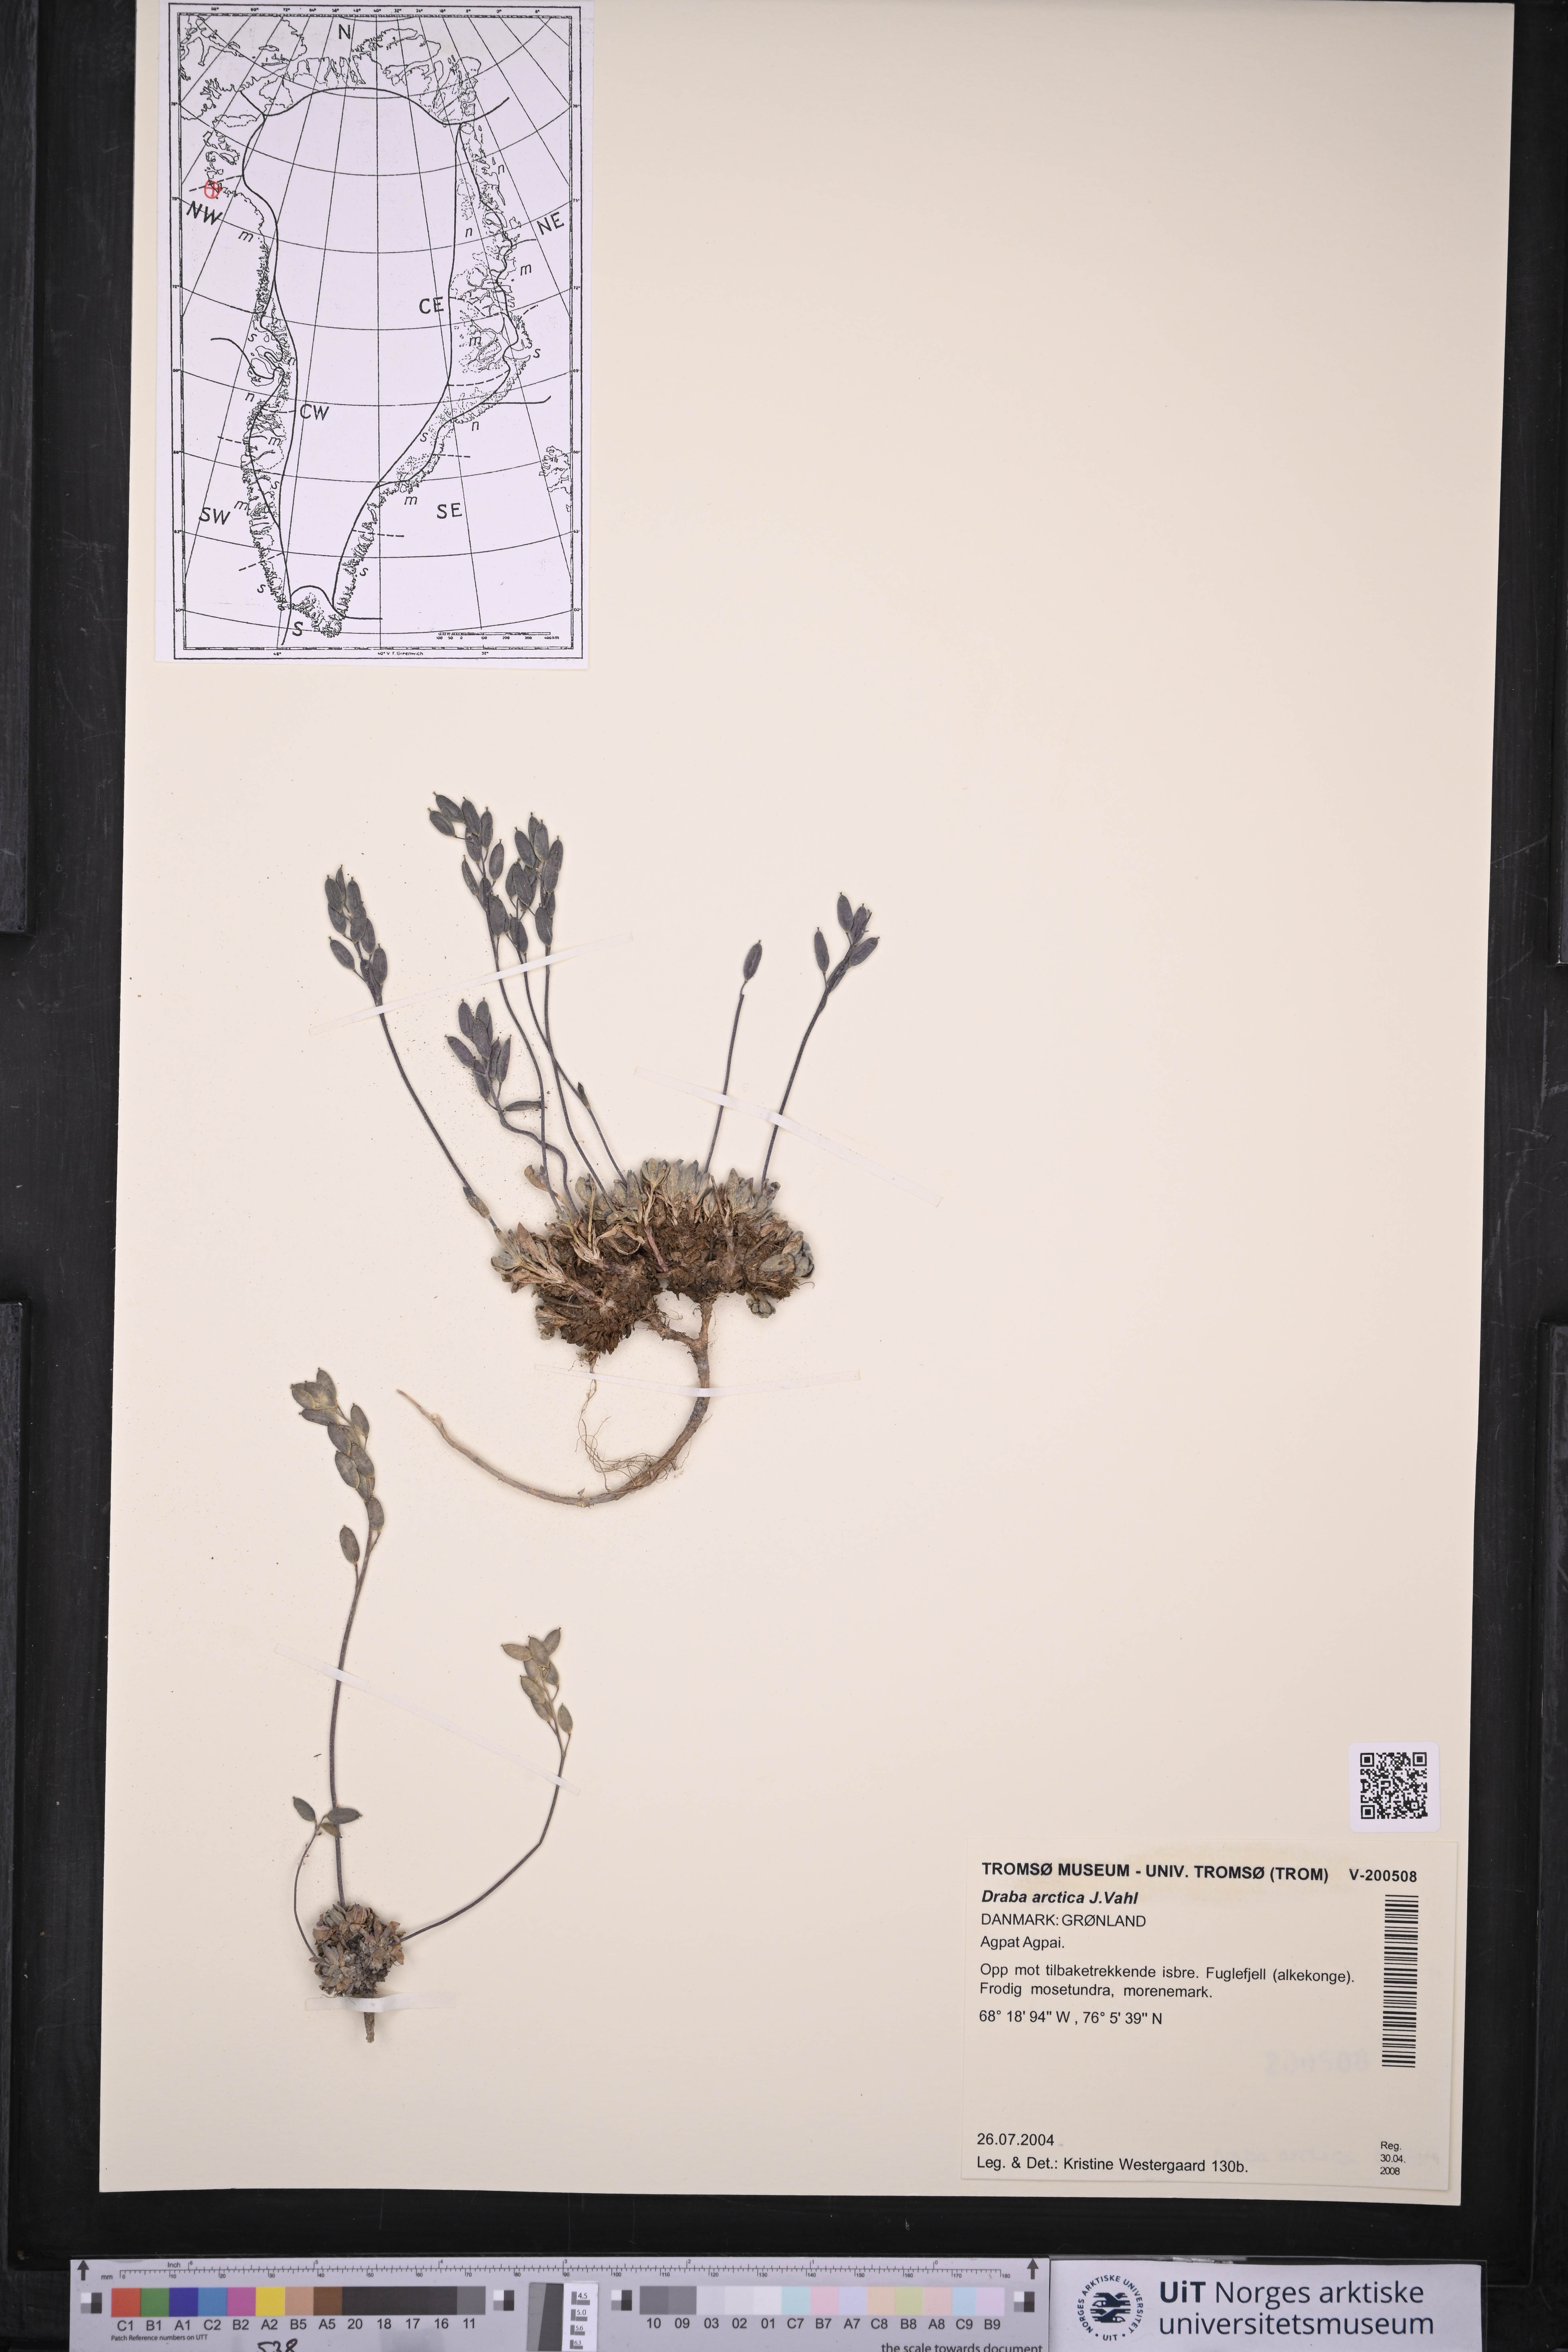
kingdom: Plantae
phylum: Tracheophyta
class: Magnoliopsida
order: Brassicales
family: Brassicaceae
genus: Draba
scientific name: Draba arctica
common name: Arctic draba
